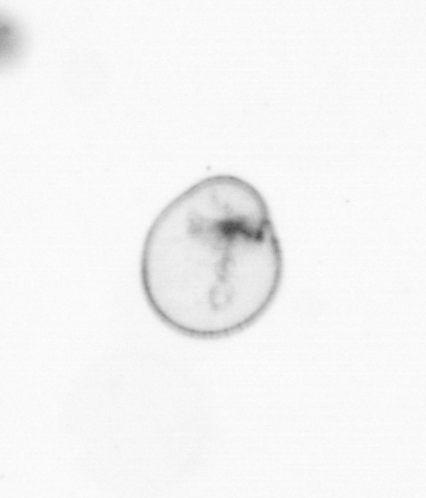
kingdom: Chromista
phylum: Myzozoa
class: Dinophyceae
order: Noctilucales
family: Noctilucaceae
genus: Noctiluca
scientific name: Noctiluca scintillans
